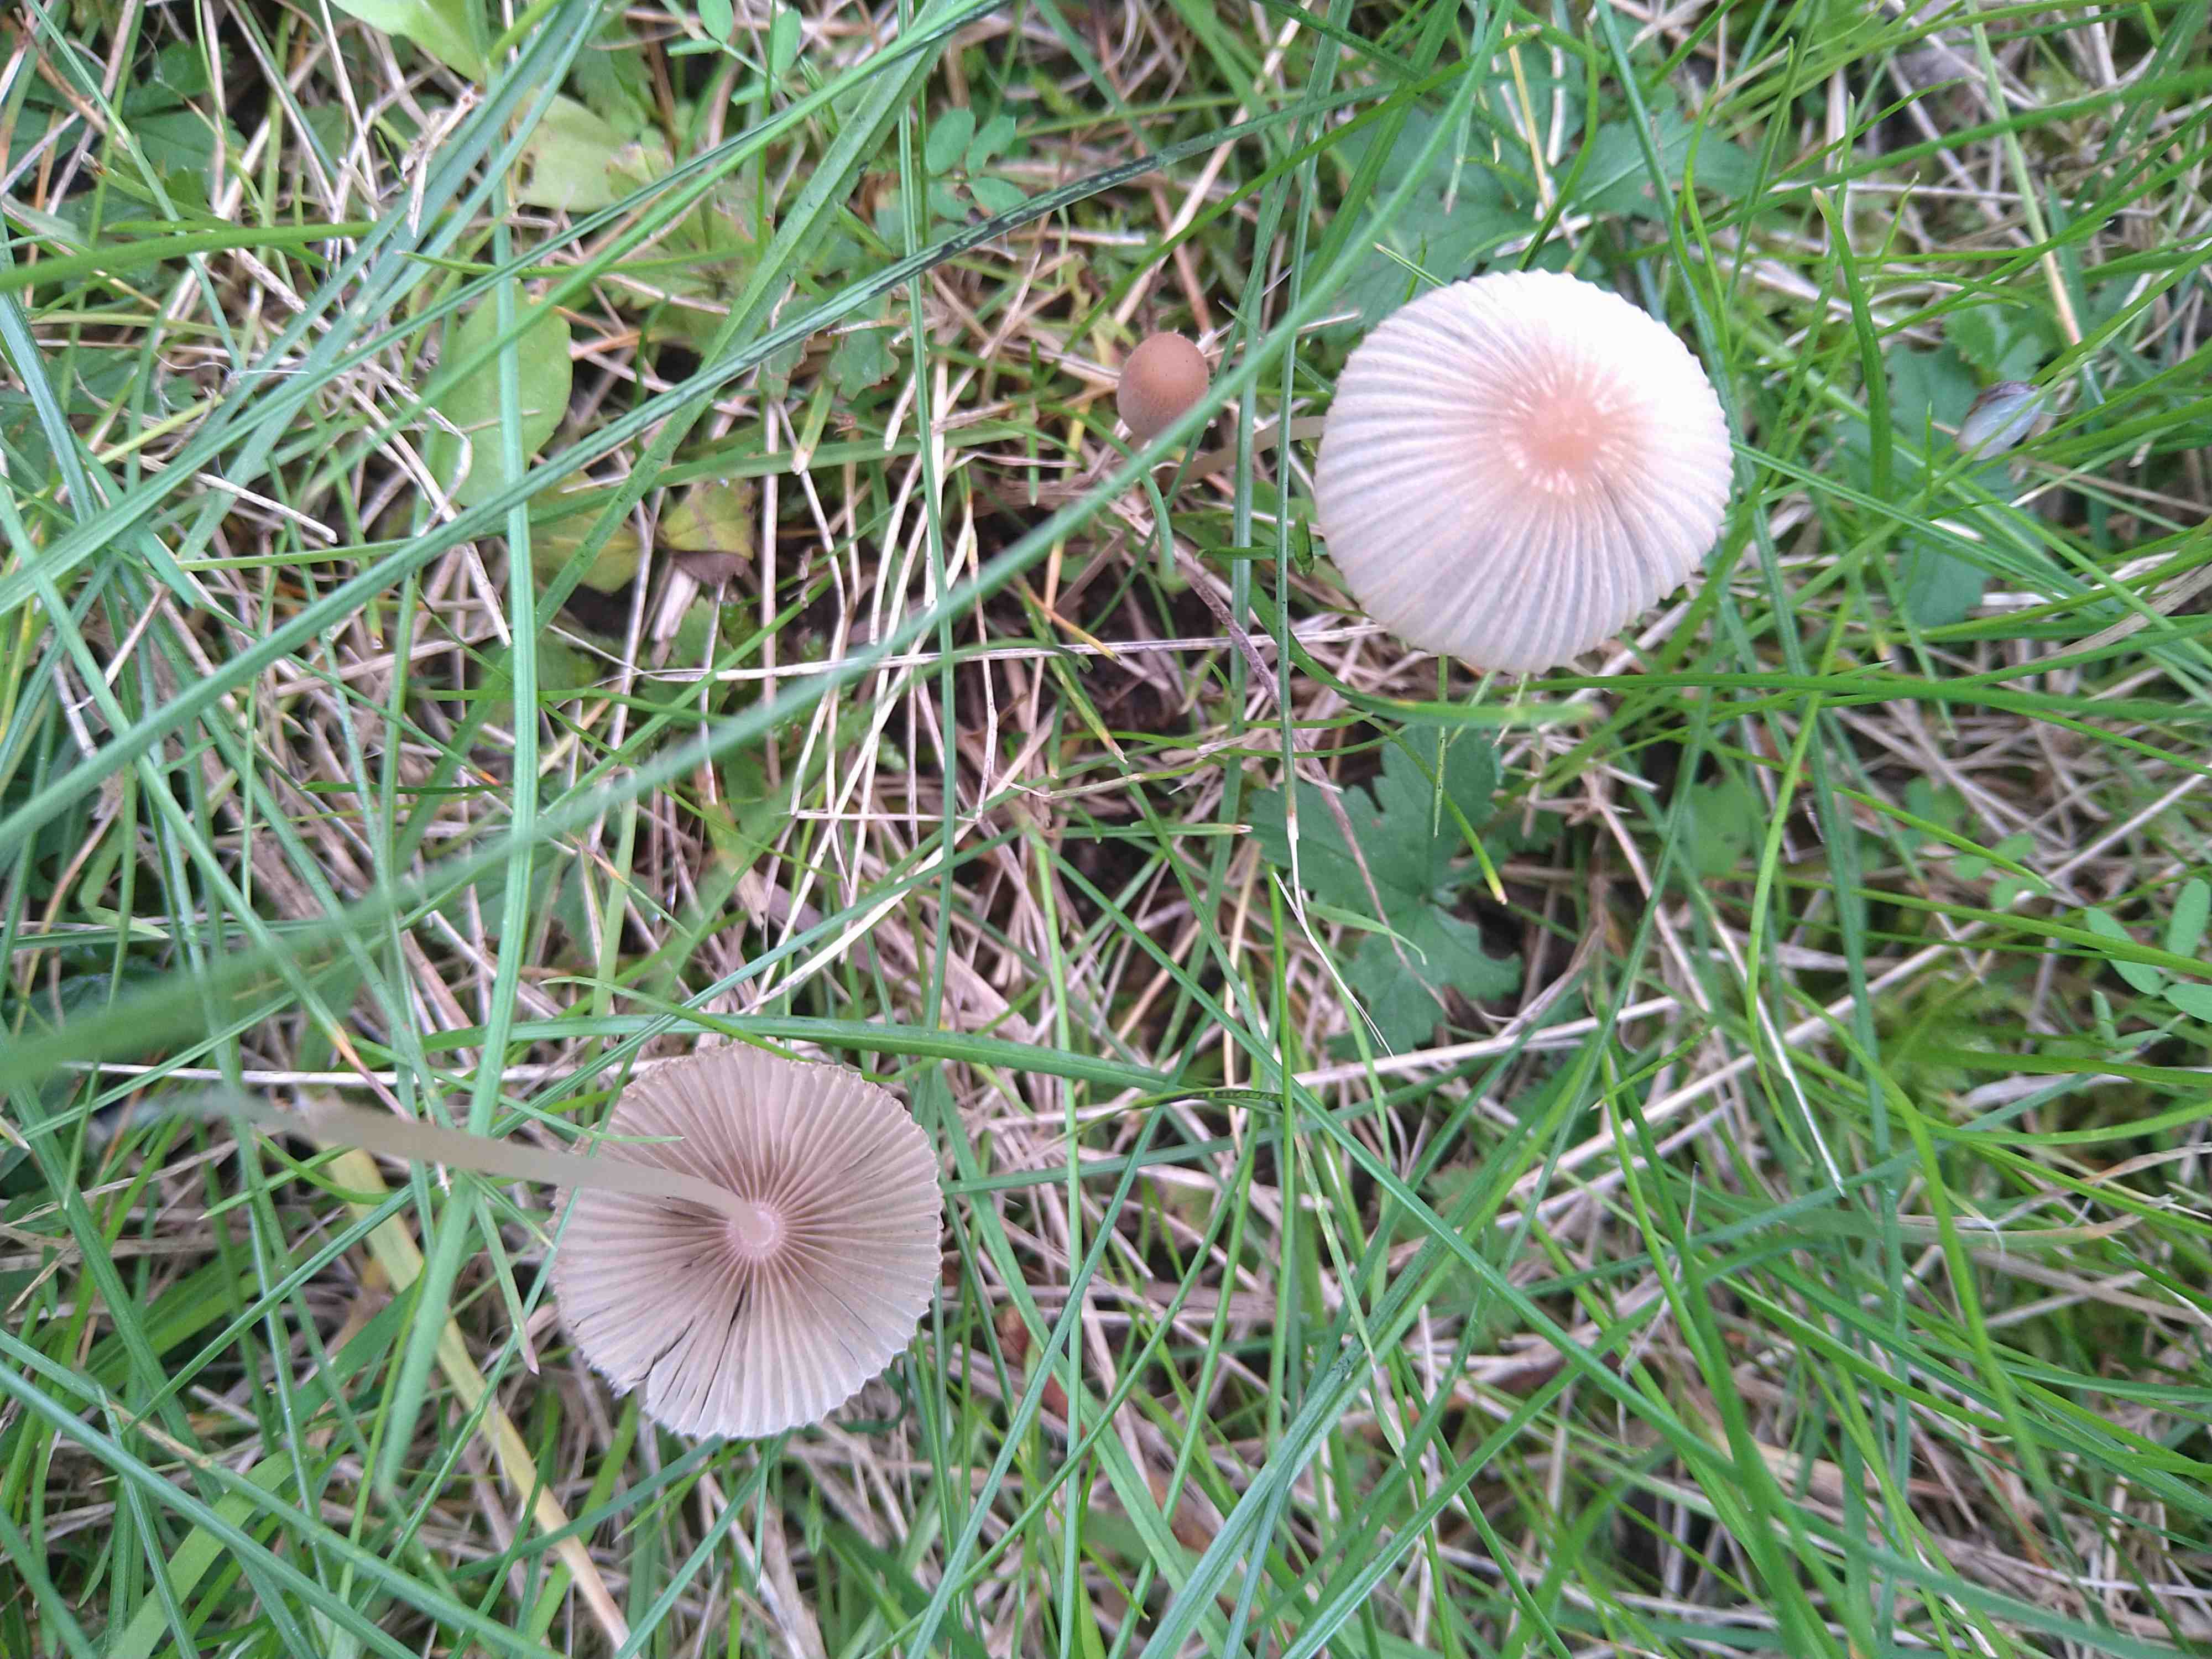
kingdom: Fungi
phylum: Basidiomycota
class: Agaricomycetes
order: Agaricales
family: Psathyrellaceae
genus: Parasola
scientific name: Parasola
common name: hjulhat
